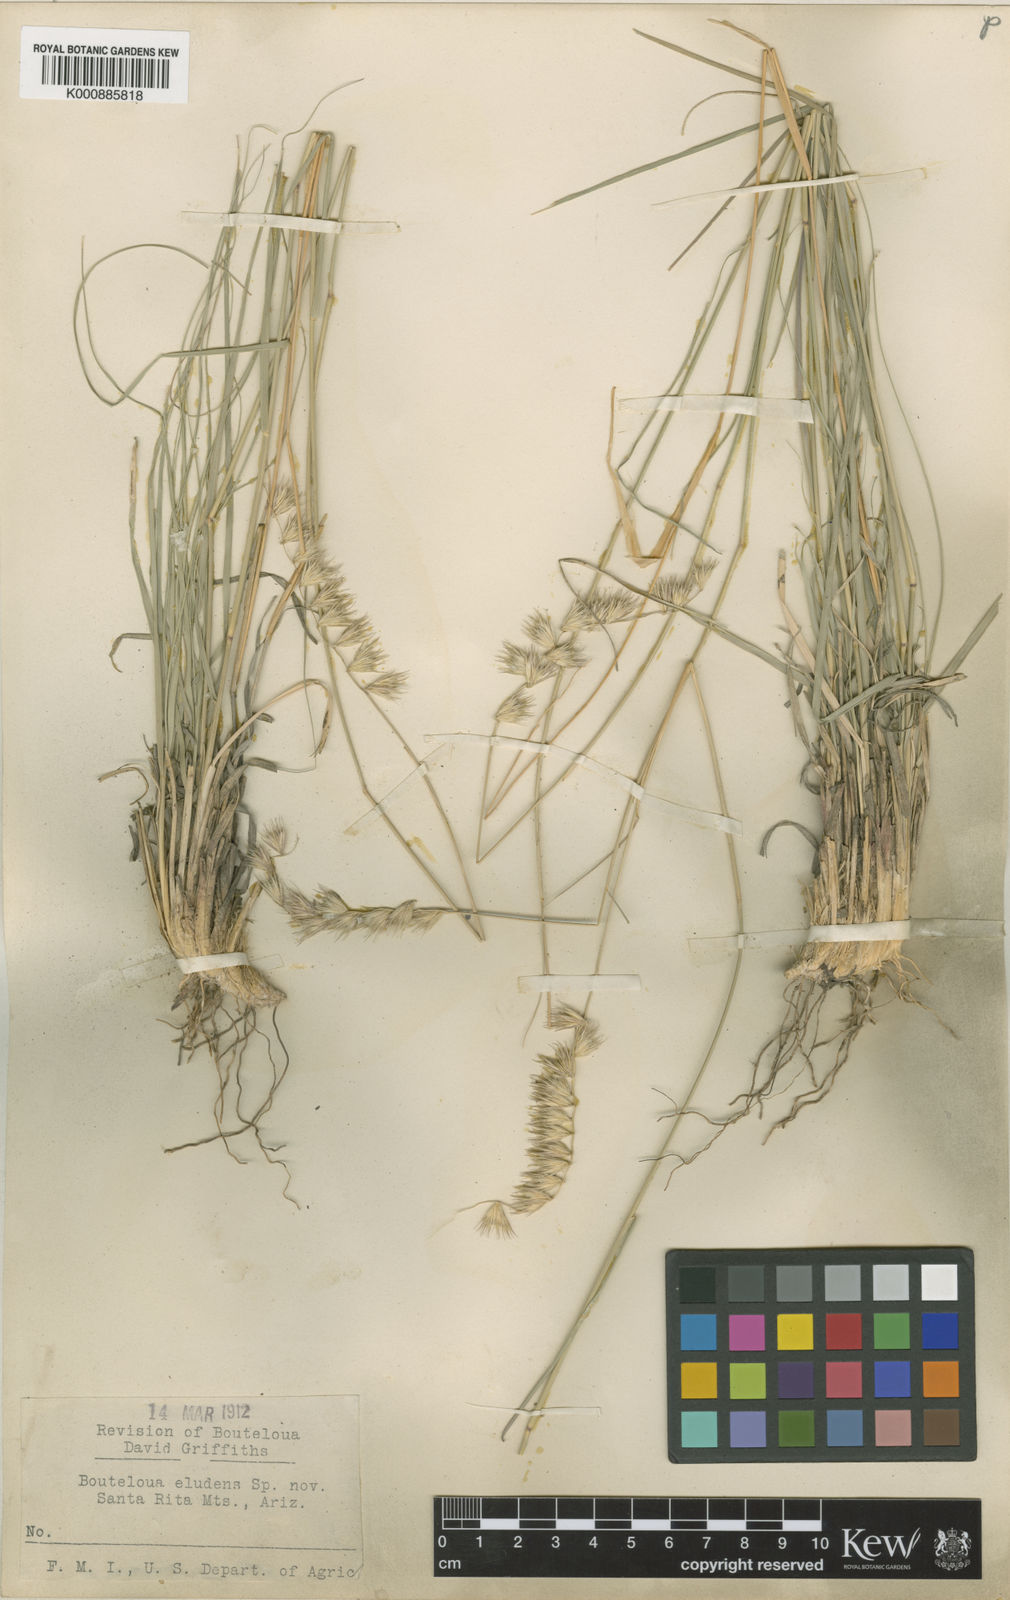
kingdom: Plantae
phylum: Tracheophyta
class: Liliopsida
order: Poales
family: Poaceae
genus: Bouteloua
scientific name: Bouteloua eludens
